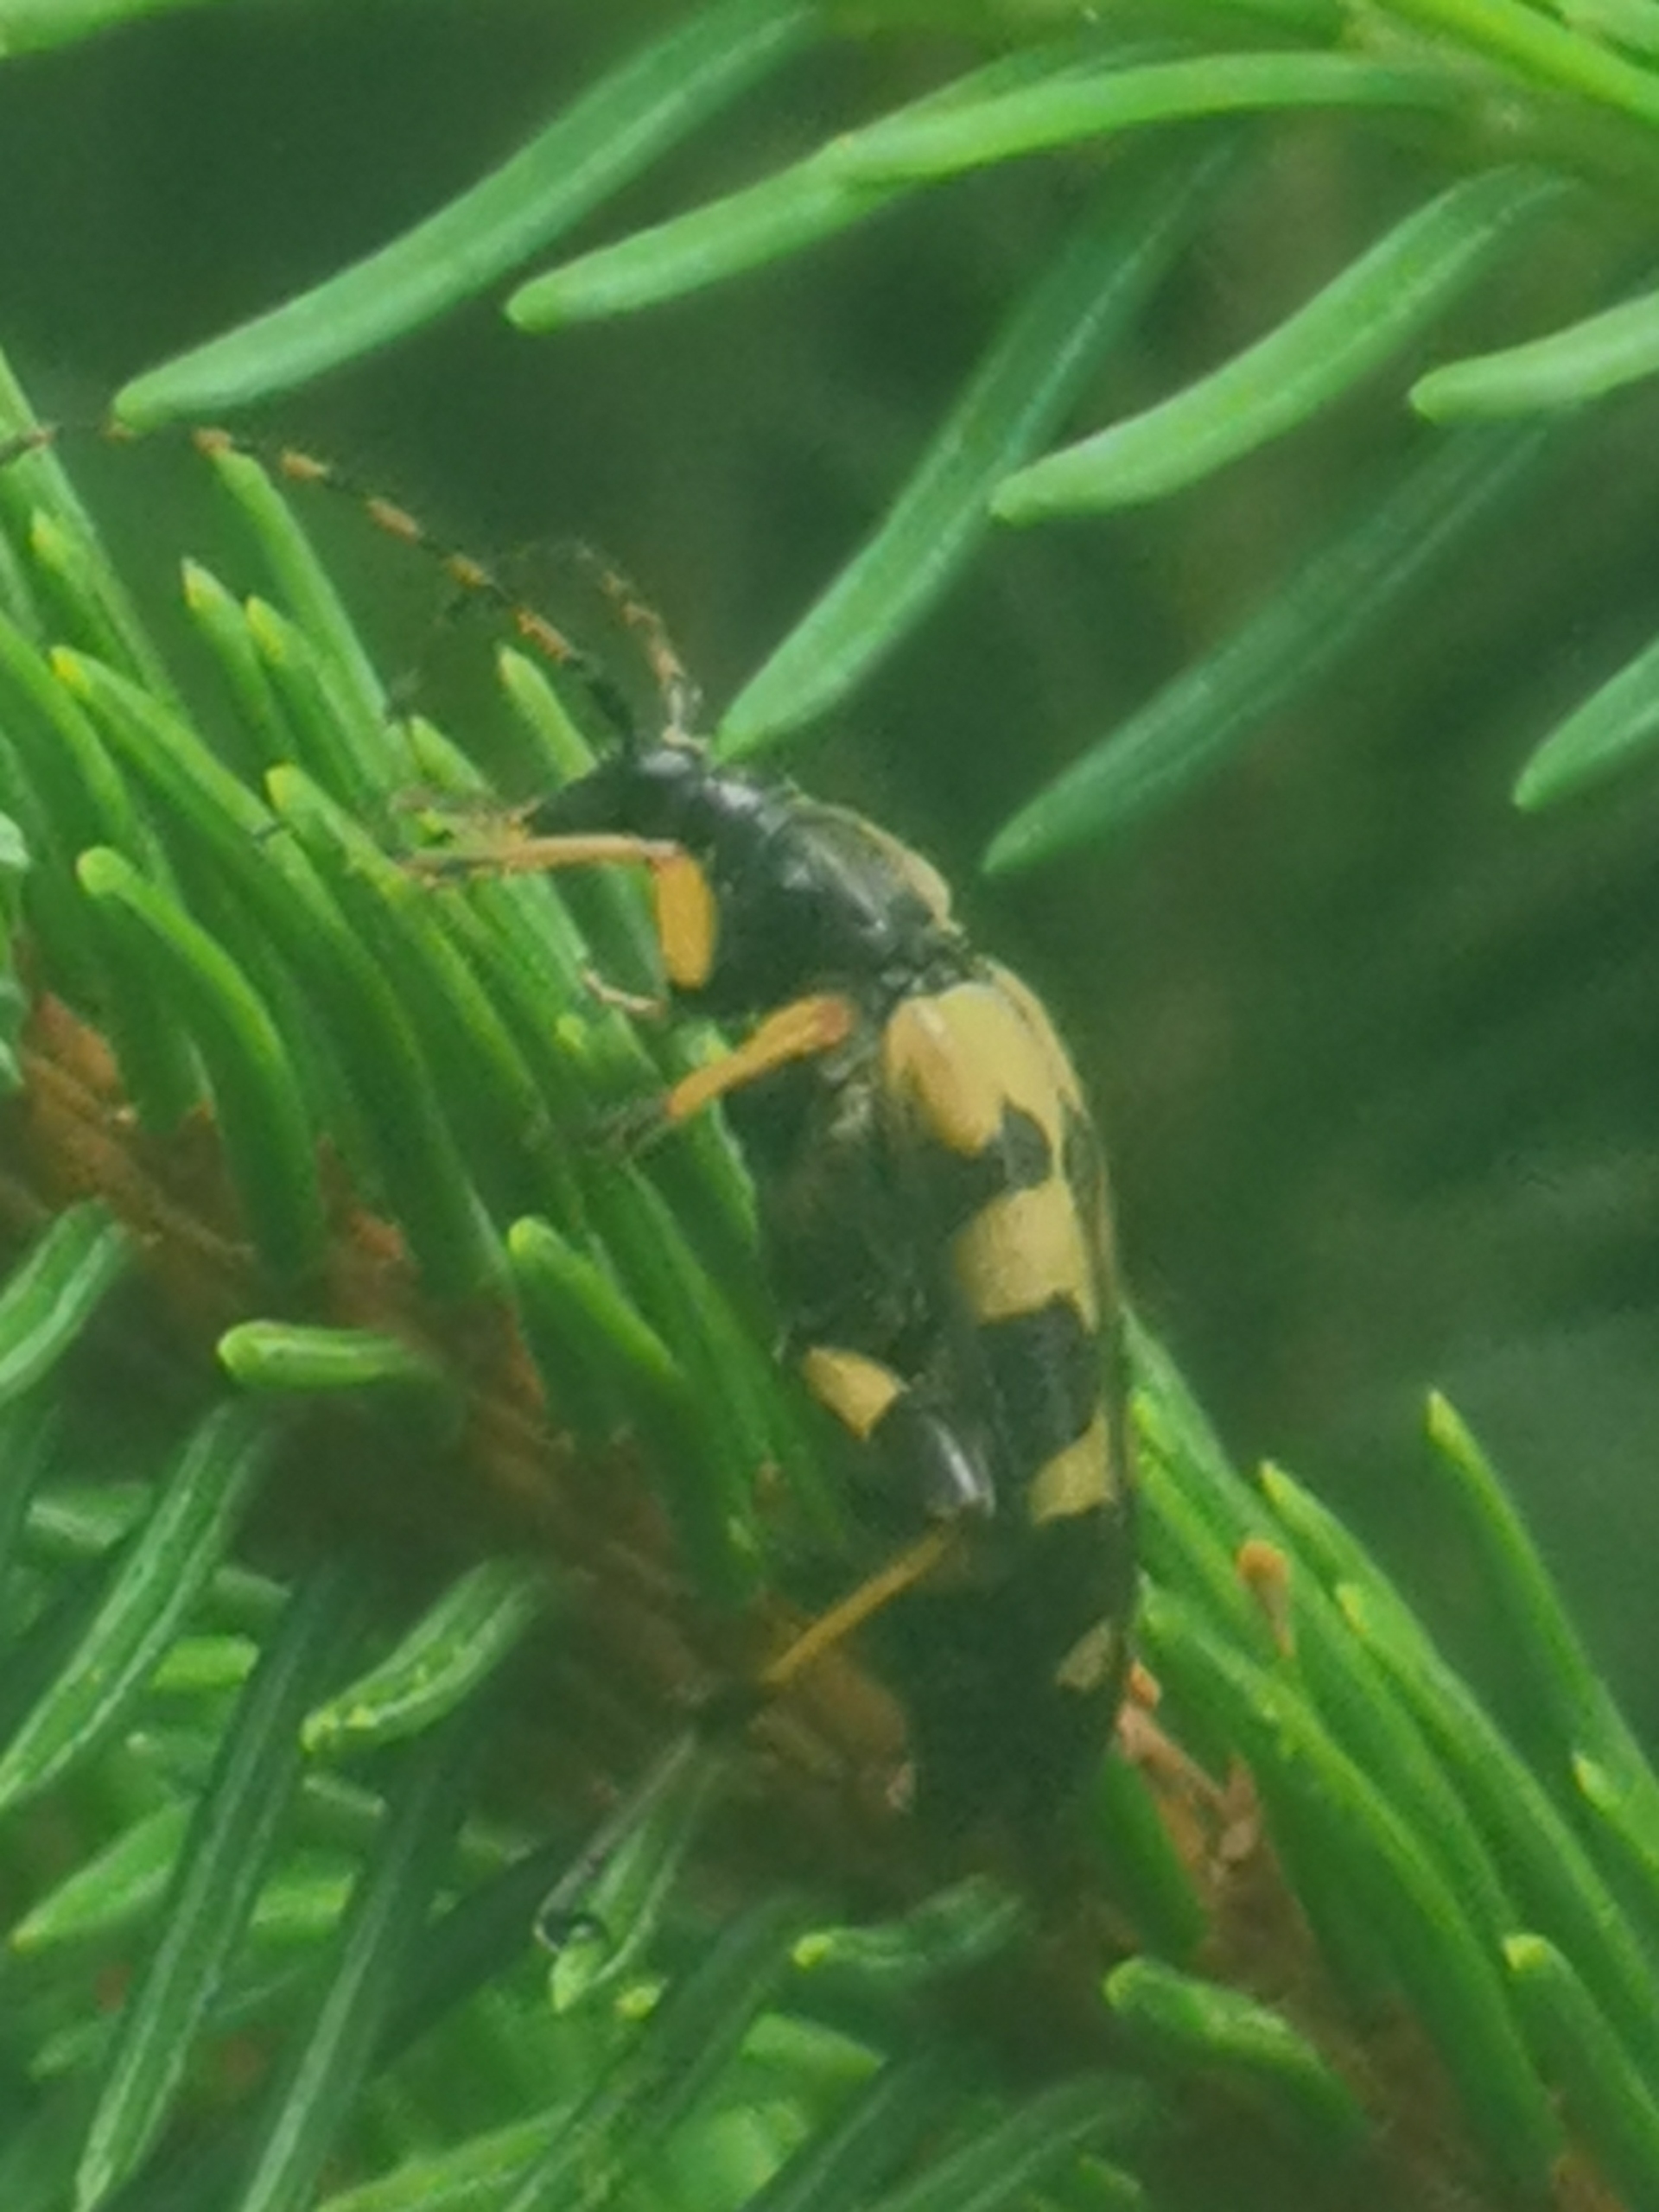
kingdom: Animalia
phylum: Arthropoda
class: Insecta
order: Coleoptera
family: Cerambycidae
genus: Rutpela
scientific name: Rutpela maculata
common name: Sydlig blomsterbuk
